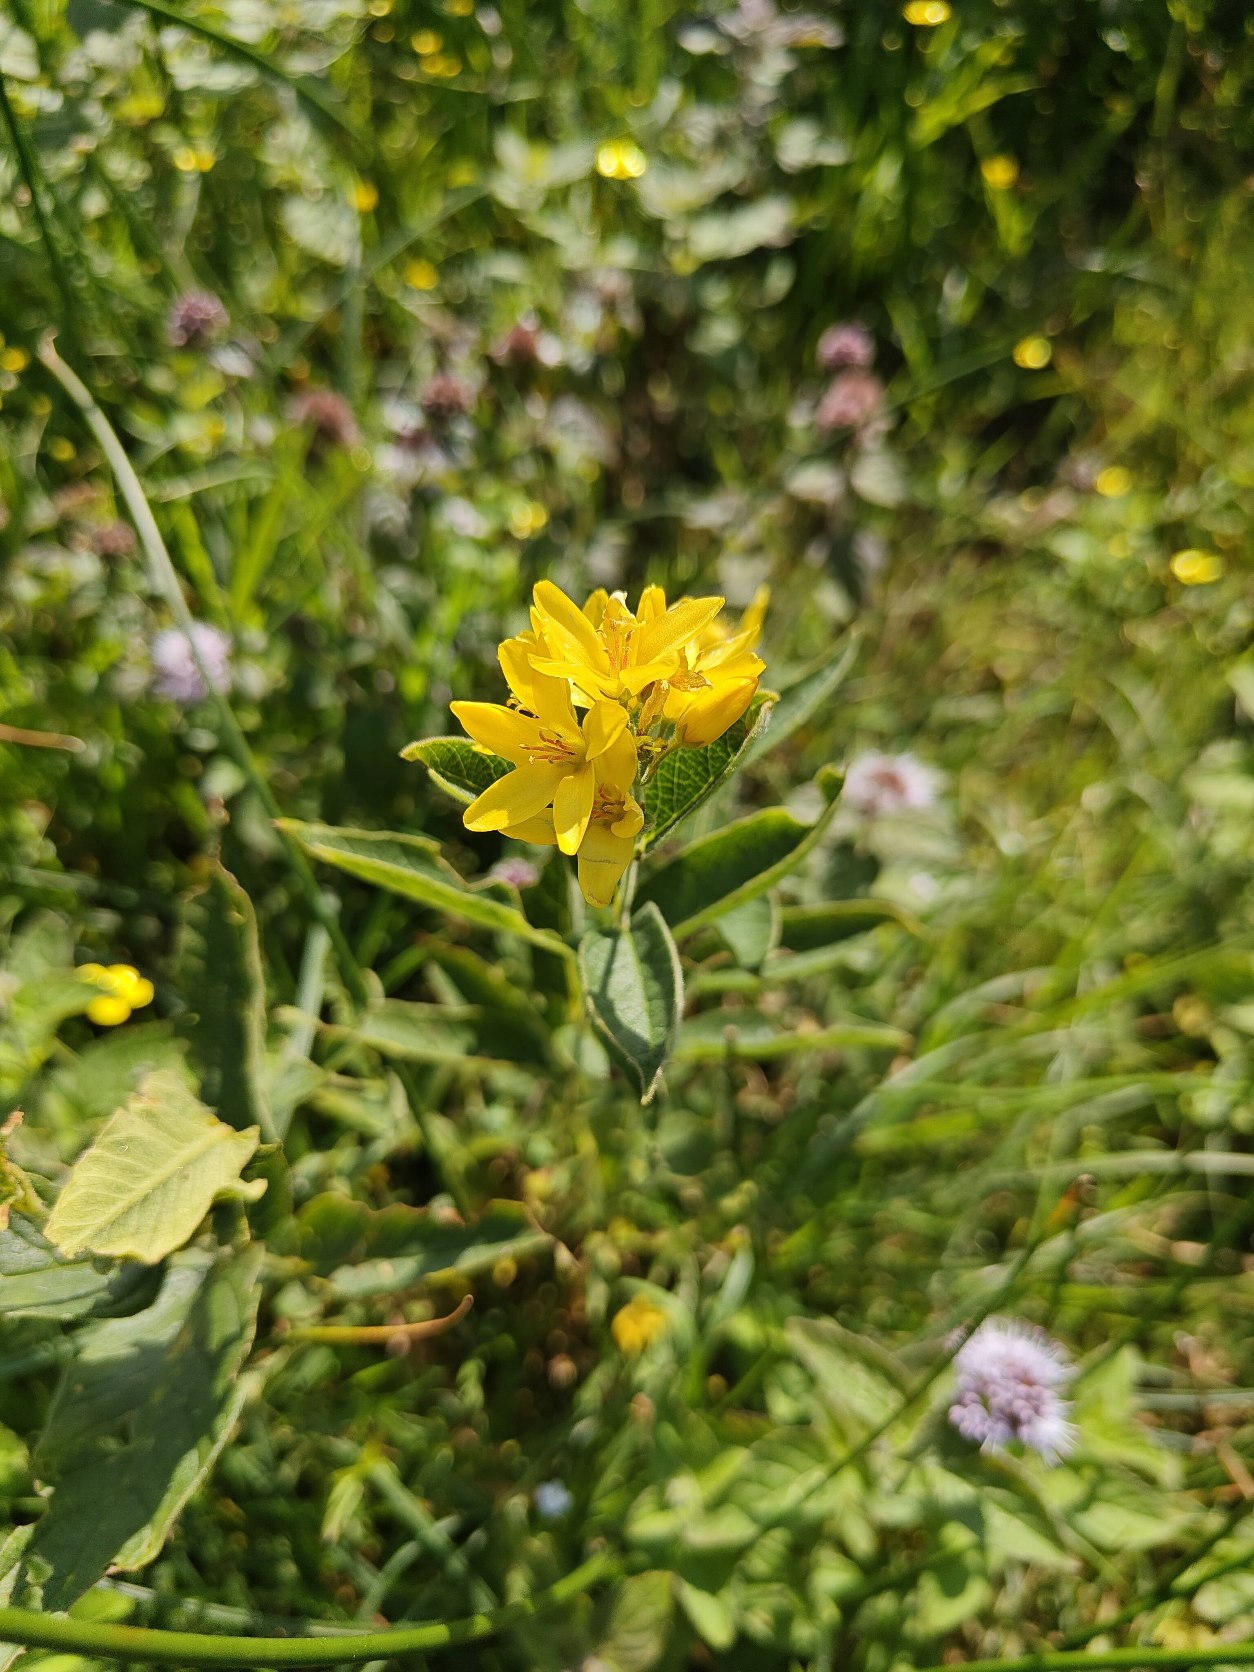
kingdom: Plantae
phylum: Tracheophyta
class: Magnoliopsida
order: Ericales
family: Primulaceae
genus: Lysimachia
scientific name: Lysimachia vulgaris
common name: Almindelig fredløs
